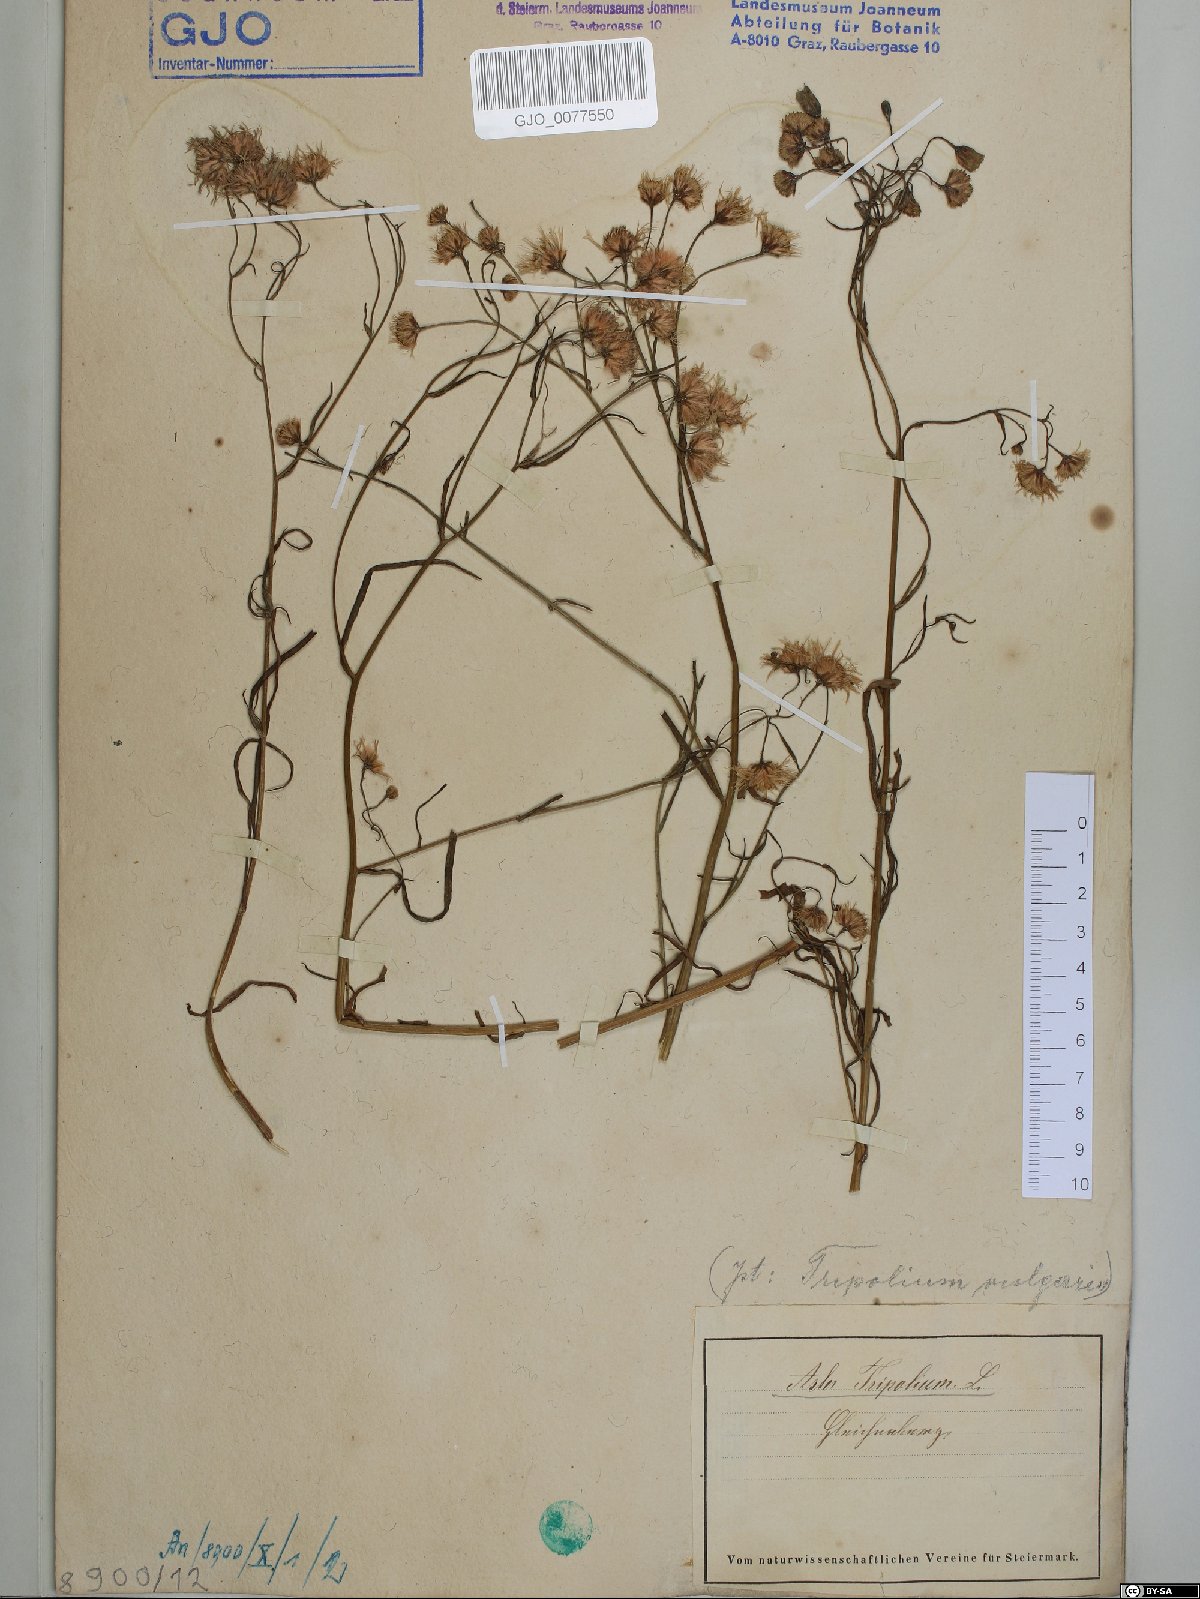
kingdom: Plantae
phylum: Tracheophyta
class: Magnoliopsida
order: Asterales
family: Asteraceae
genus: Tripolium
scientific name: Tripolium pannonicum
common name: Sea aster
